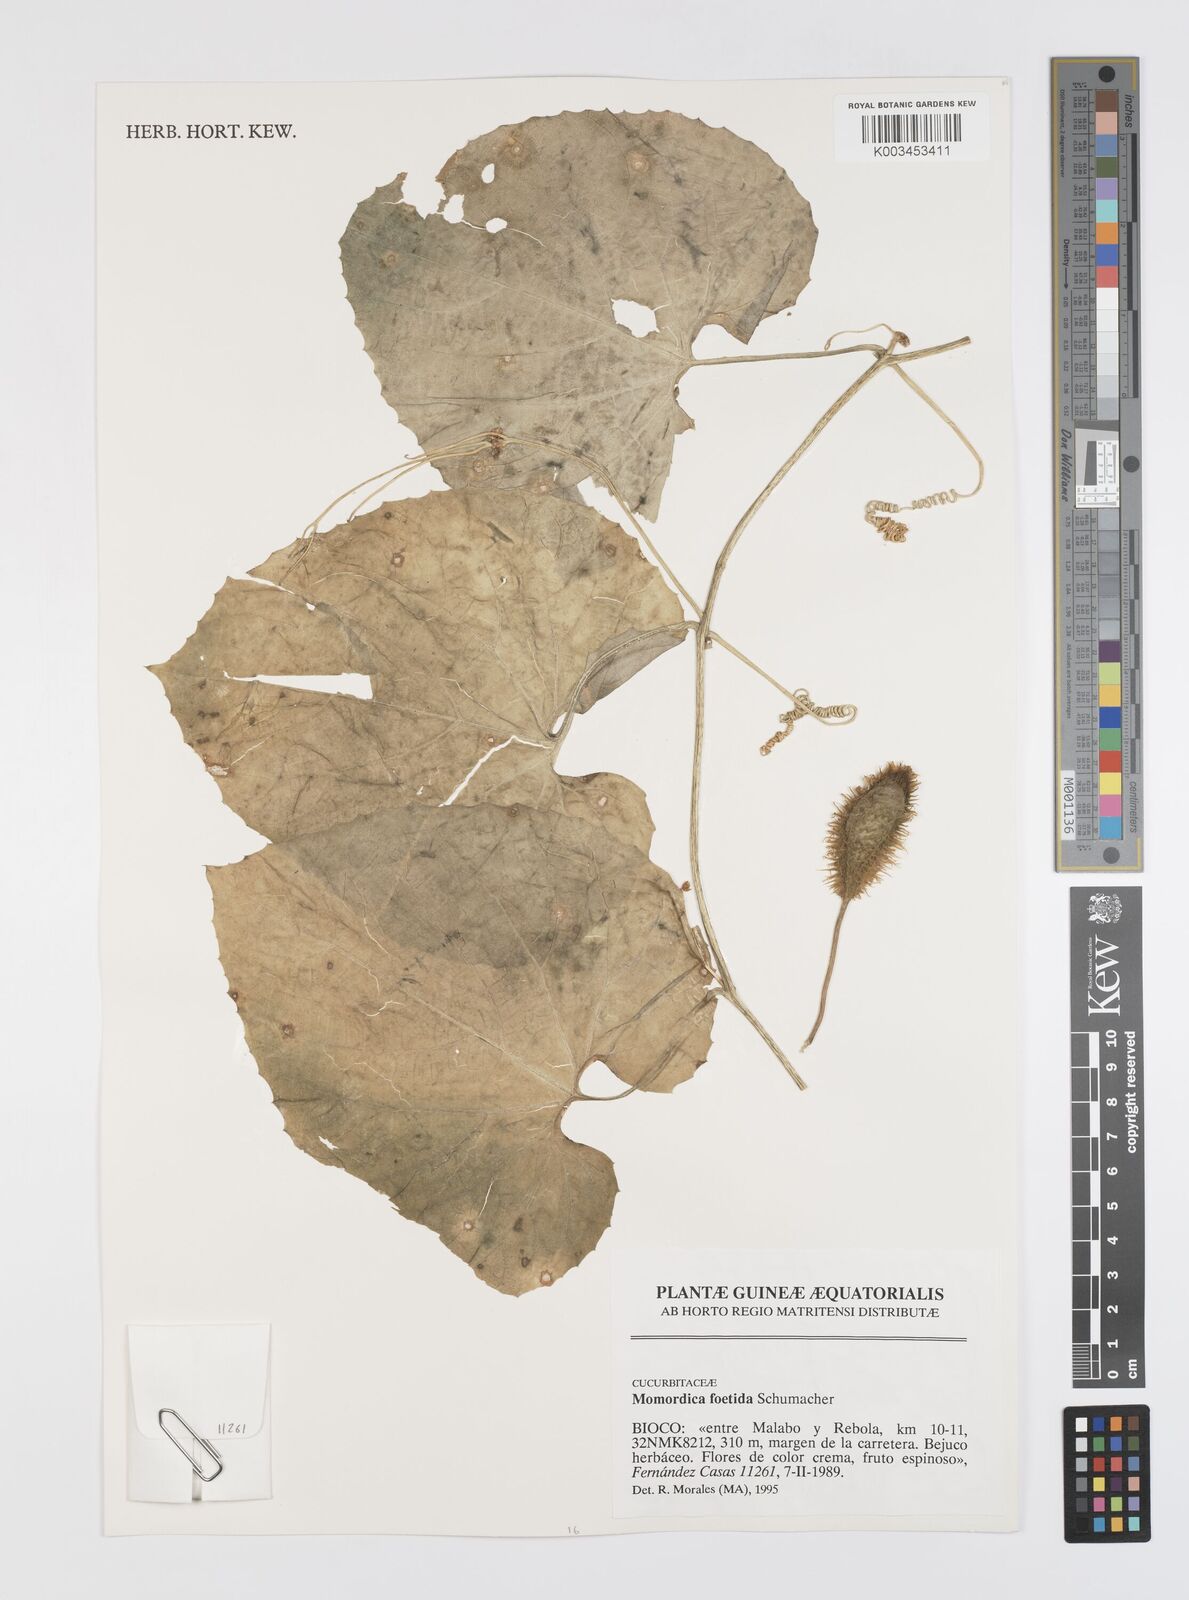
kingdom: Plantae
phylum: Tracheophyta
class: Magnoliopsida
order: Cucurbitales
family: Cucurbitaceae
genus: Momordica
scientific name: Momordica foetida
